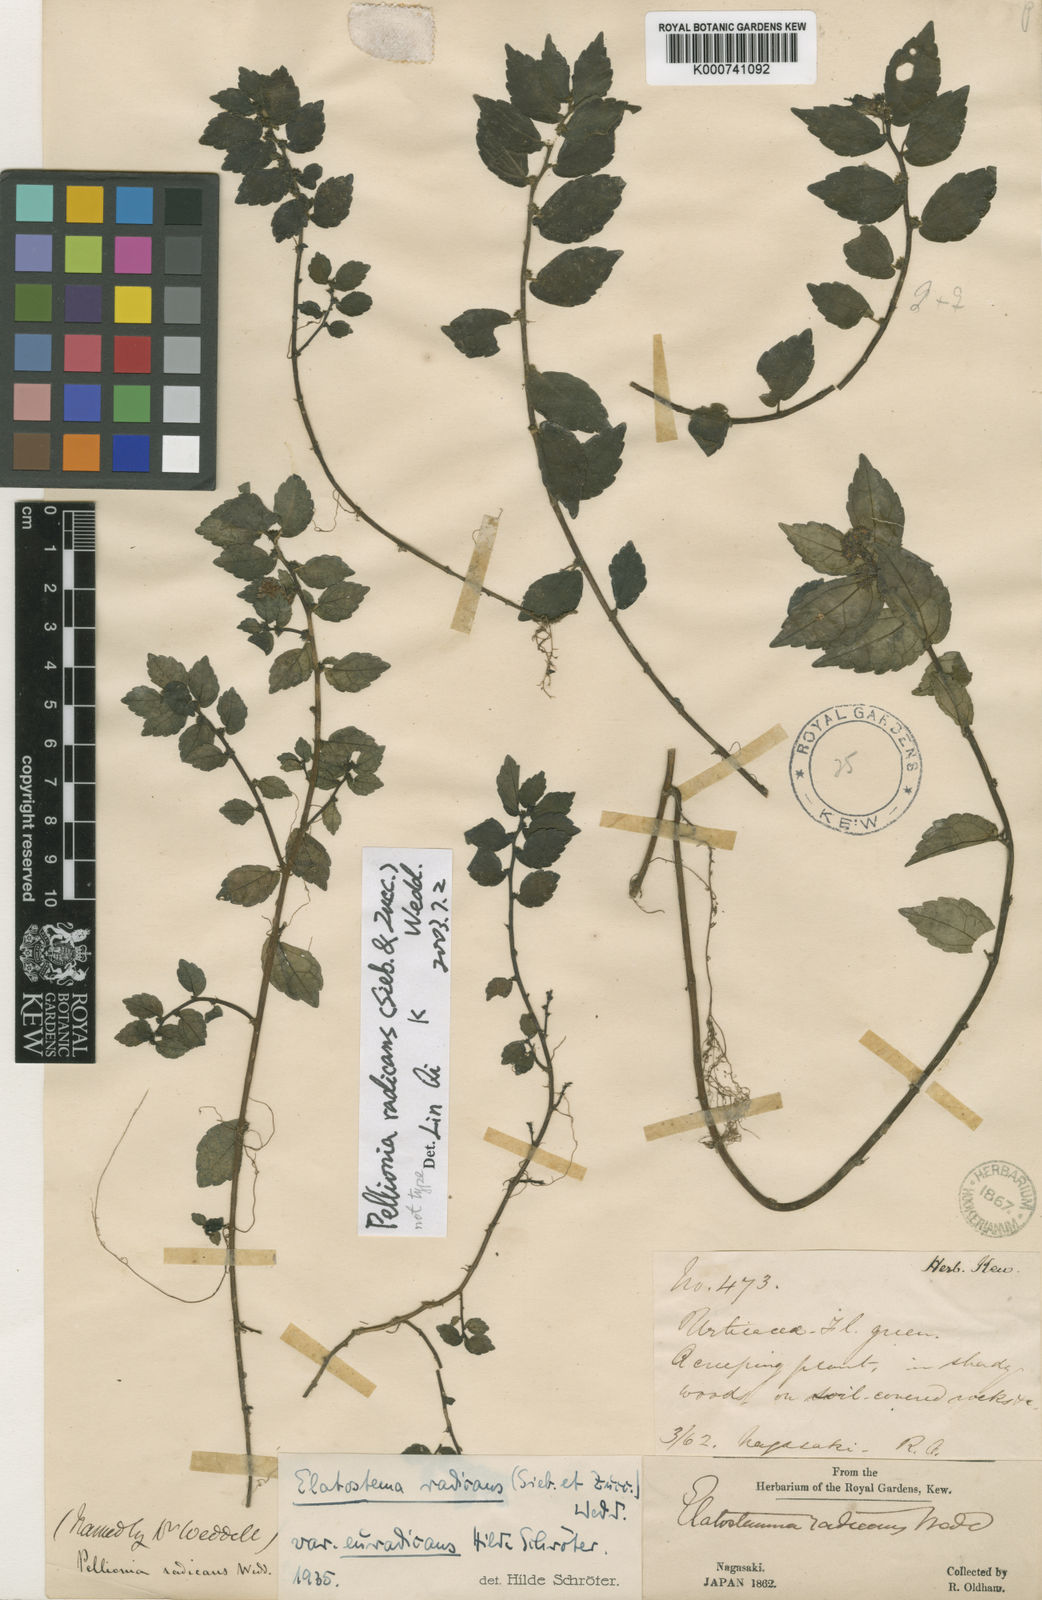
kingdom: Plantae
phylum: Tracheophyta
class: Magnoliopsida
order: Rosales
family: Urticaceae
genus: Elatostema
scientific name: Elatostema radicans
